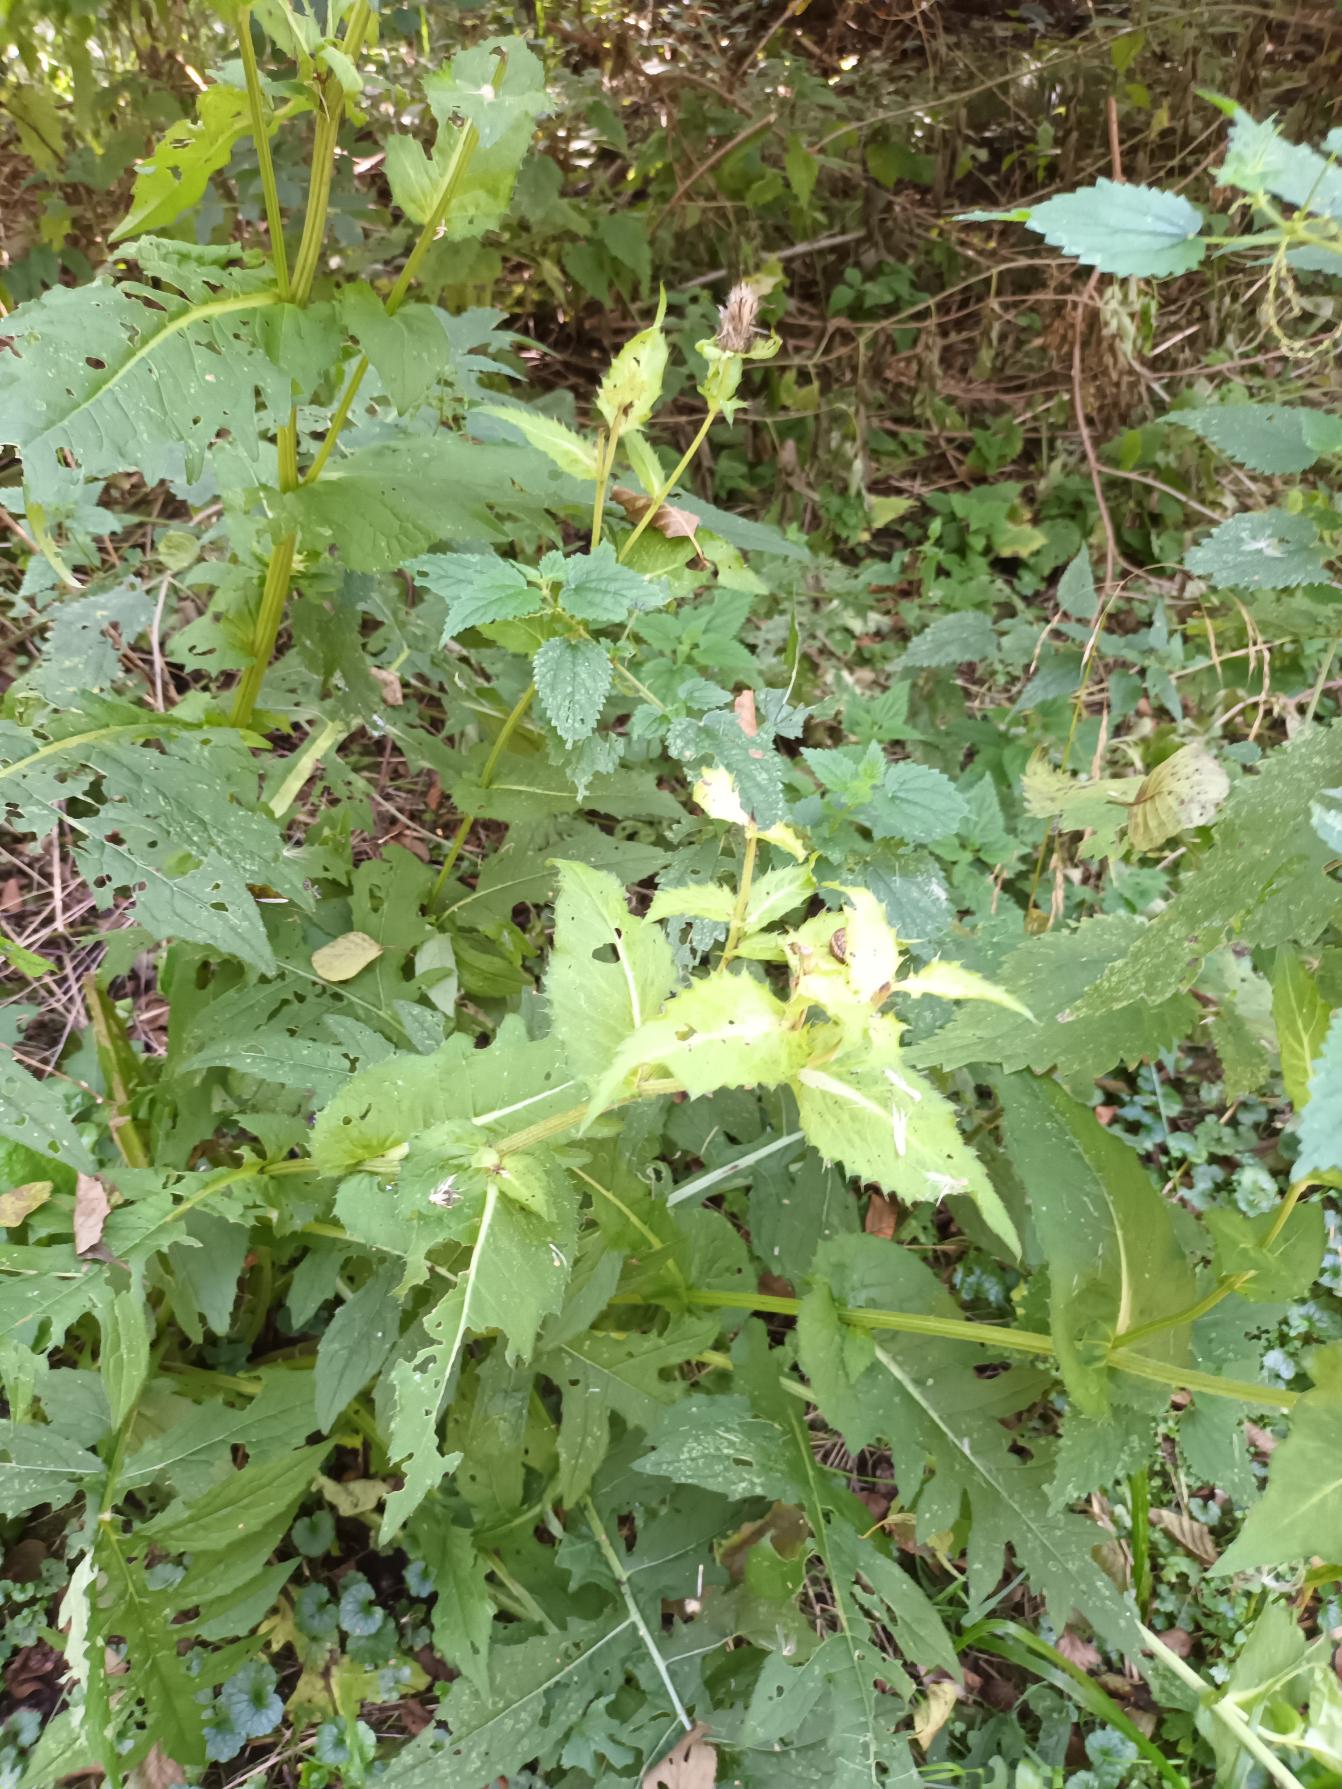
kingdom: Plantae
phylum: Tracheophyta
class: Magnoliopsida
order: Asterales
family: Asteraceae
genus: Cirsium
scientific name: Cirsium oleraceum
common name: Kål-tidsel
